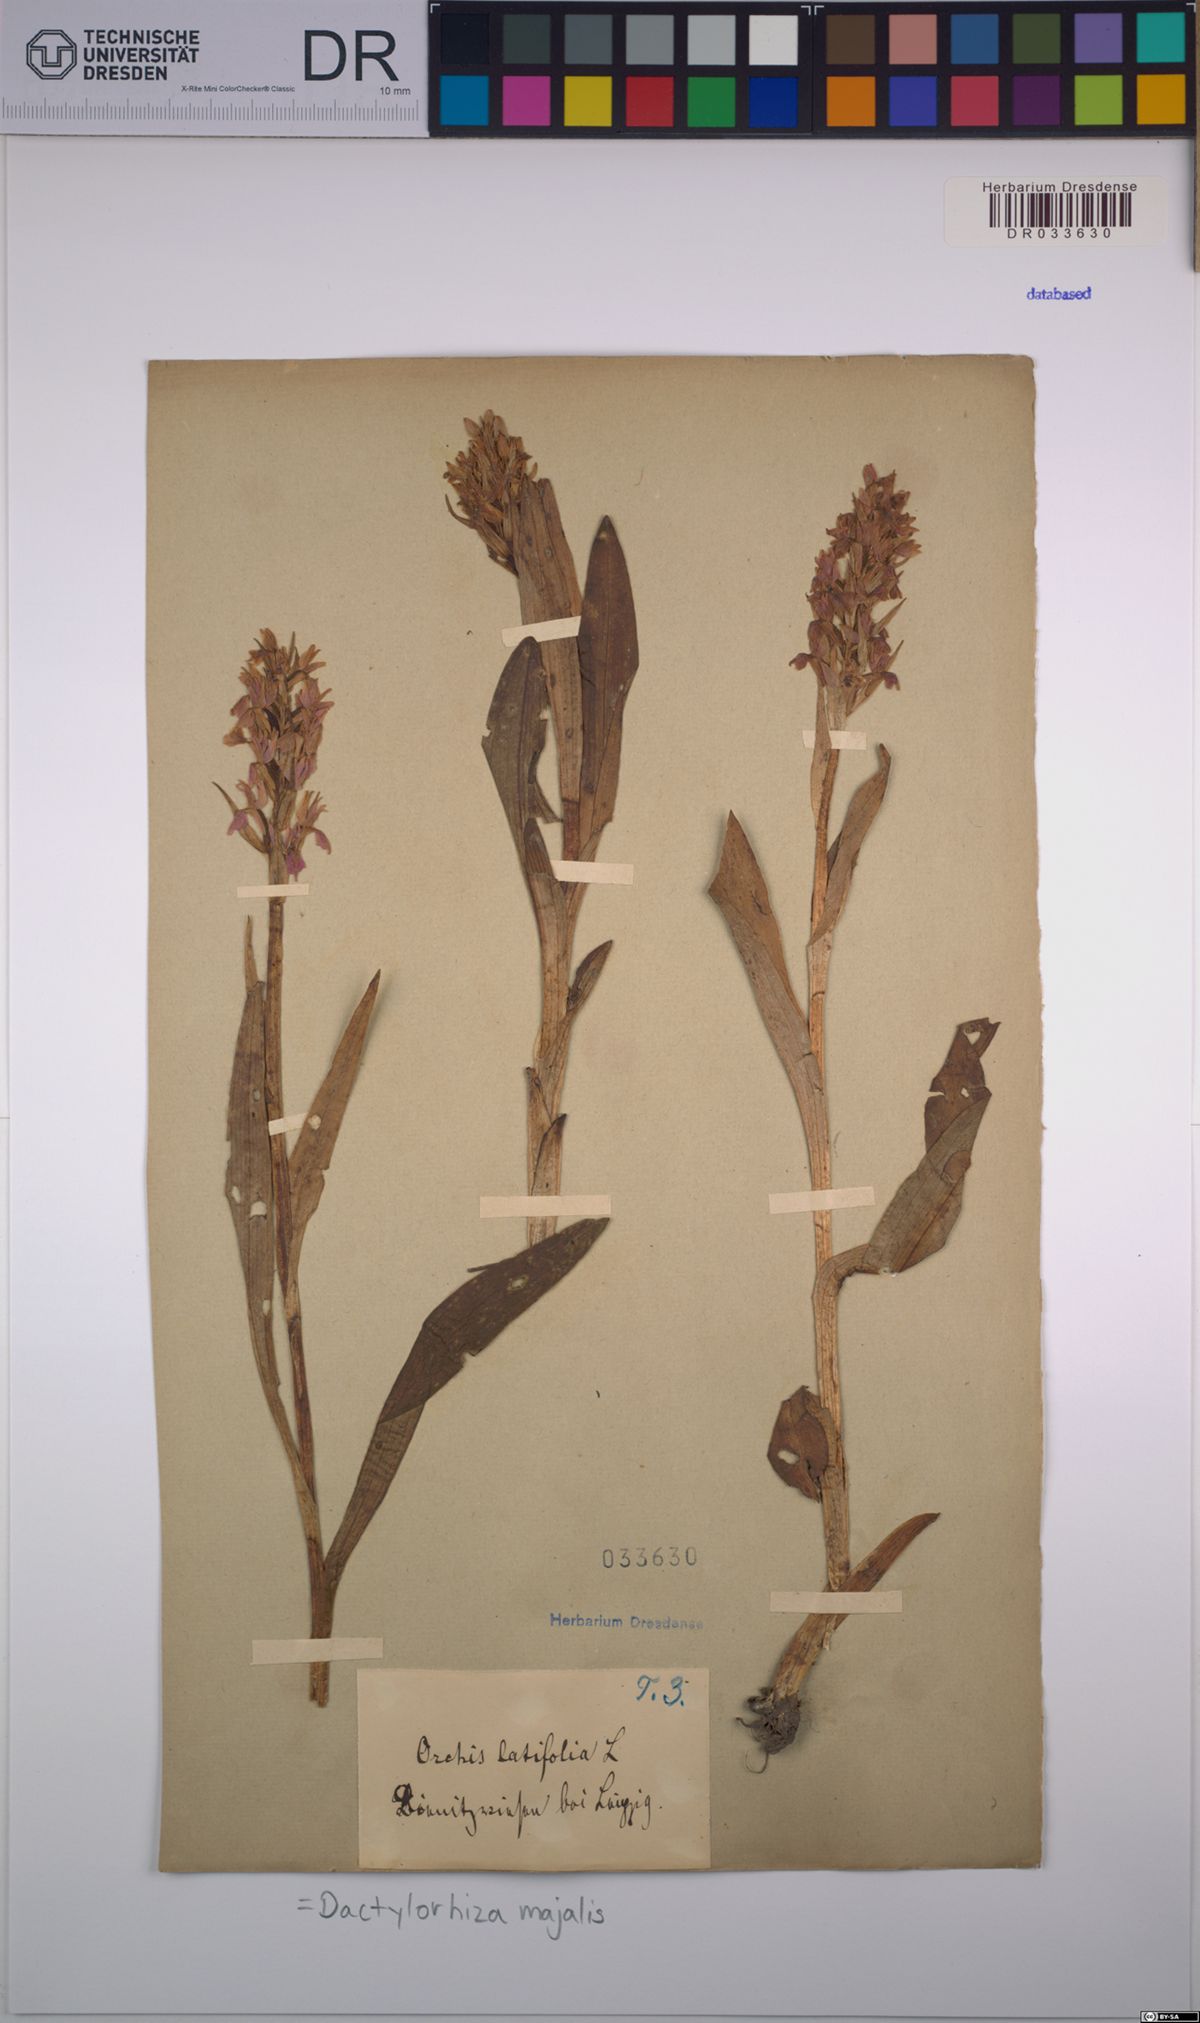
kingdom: Plantae
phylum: Tracheophyta
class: Liliopsida
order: Asparagales
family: Orchidaceae
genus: Dactylorhiza
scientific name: Dactylorhiza majalis
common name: Marsh orchid
